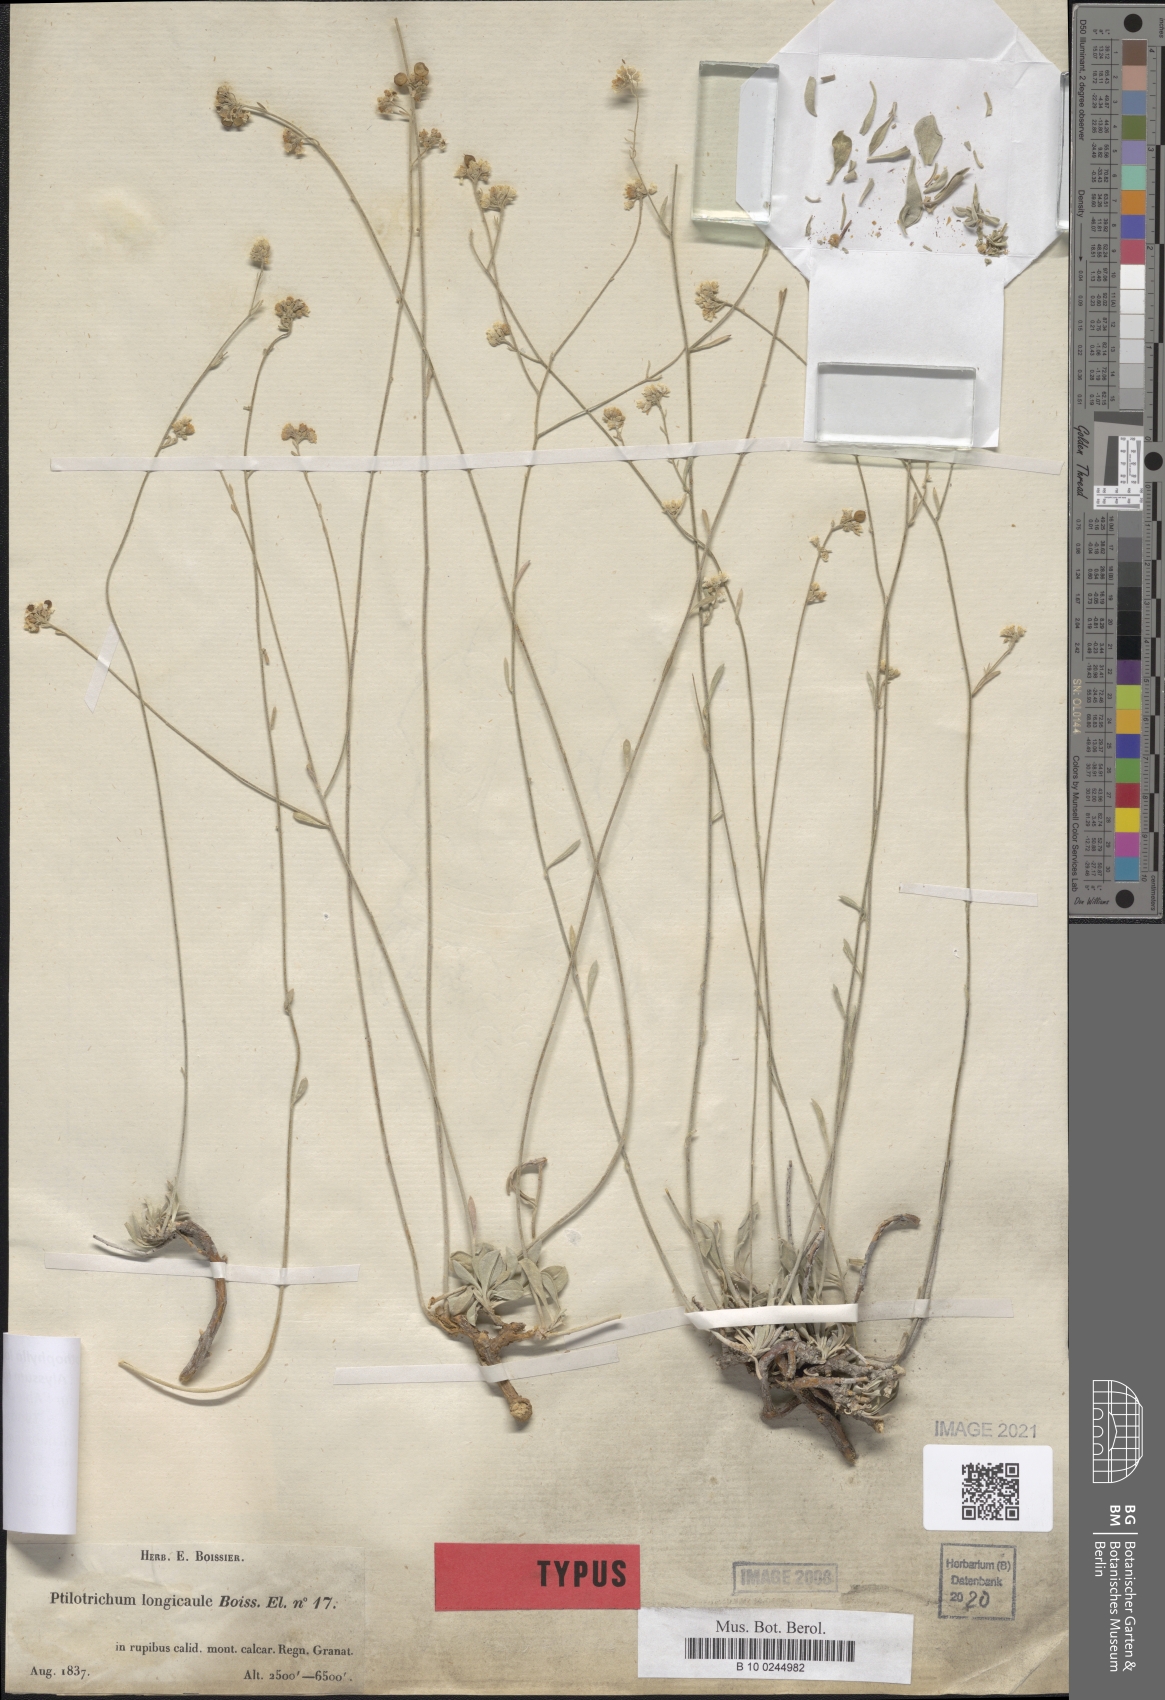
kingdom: Plantae
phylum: Tracheophyta
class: Magnoliopsida
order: Brassicales
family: Brassicaceae
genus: Hormathophylla
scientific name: Hormathophylla longicaulis
